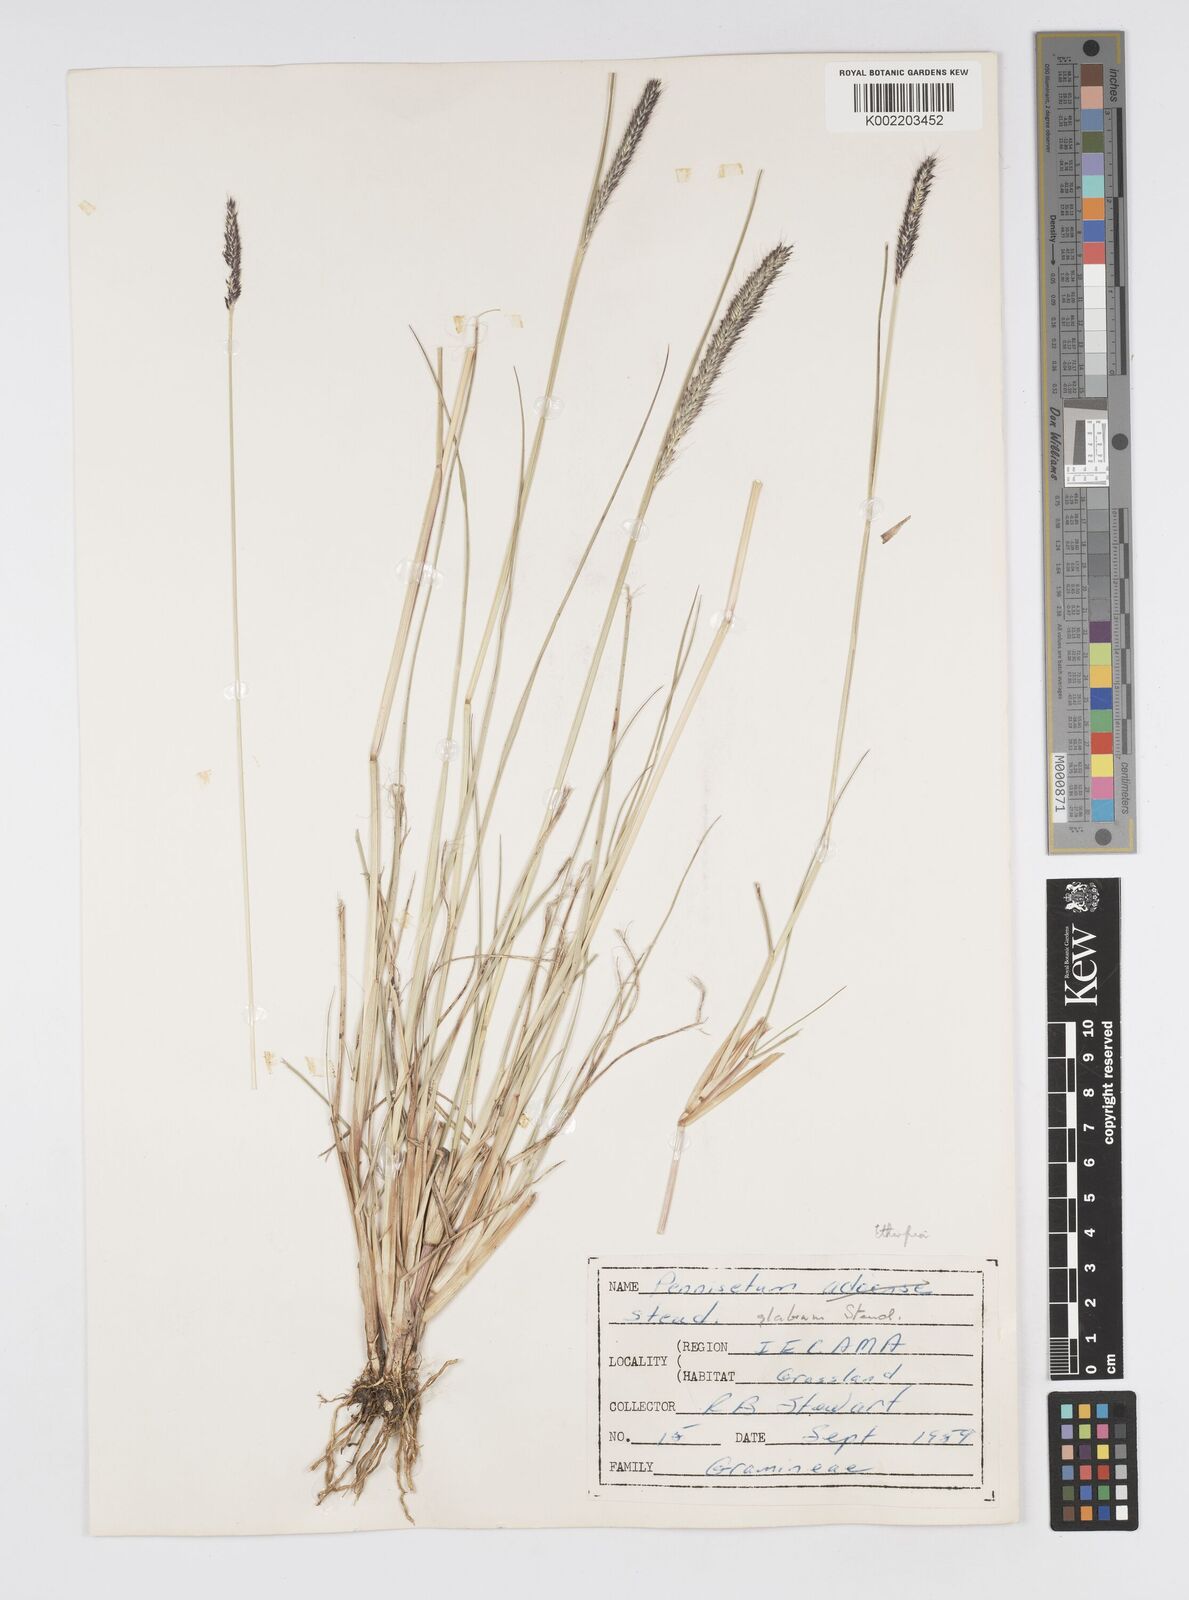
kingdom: Plantae
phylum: Tracheophyta
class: Liliopsida
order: Poales
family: Poaceae
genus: Cenchrus
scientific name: Cenchrus geniculatus
